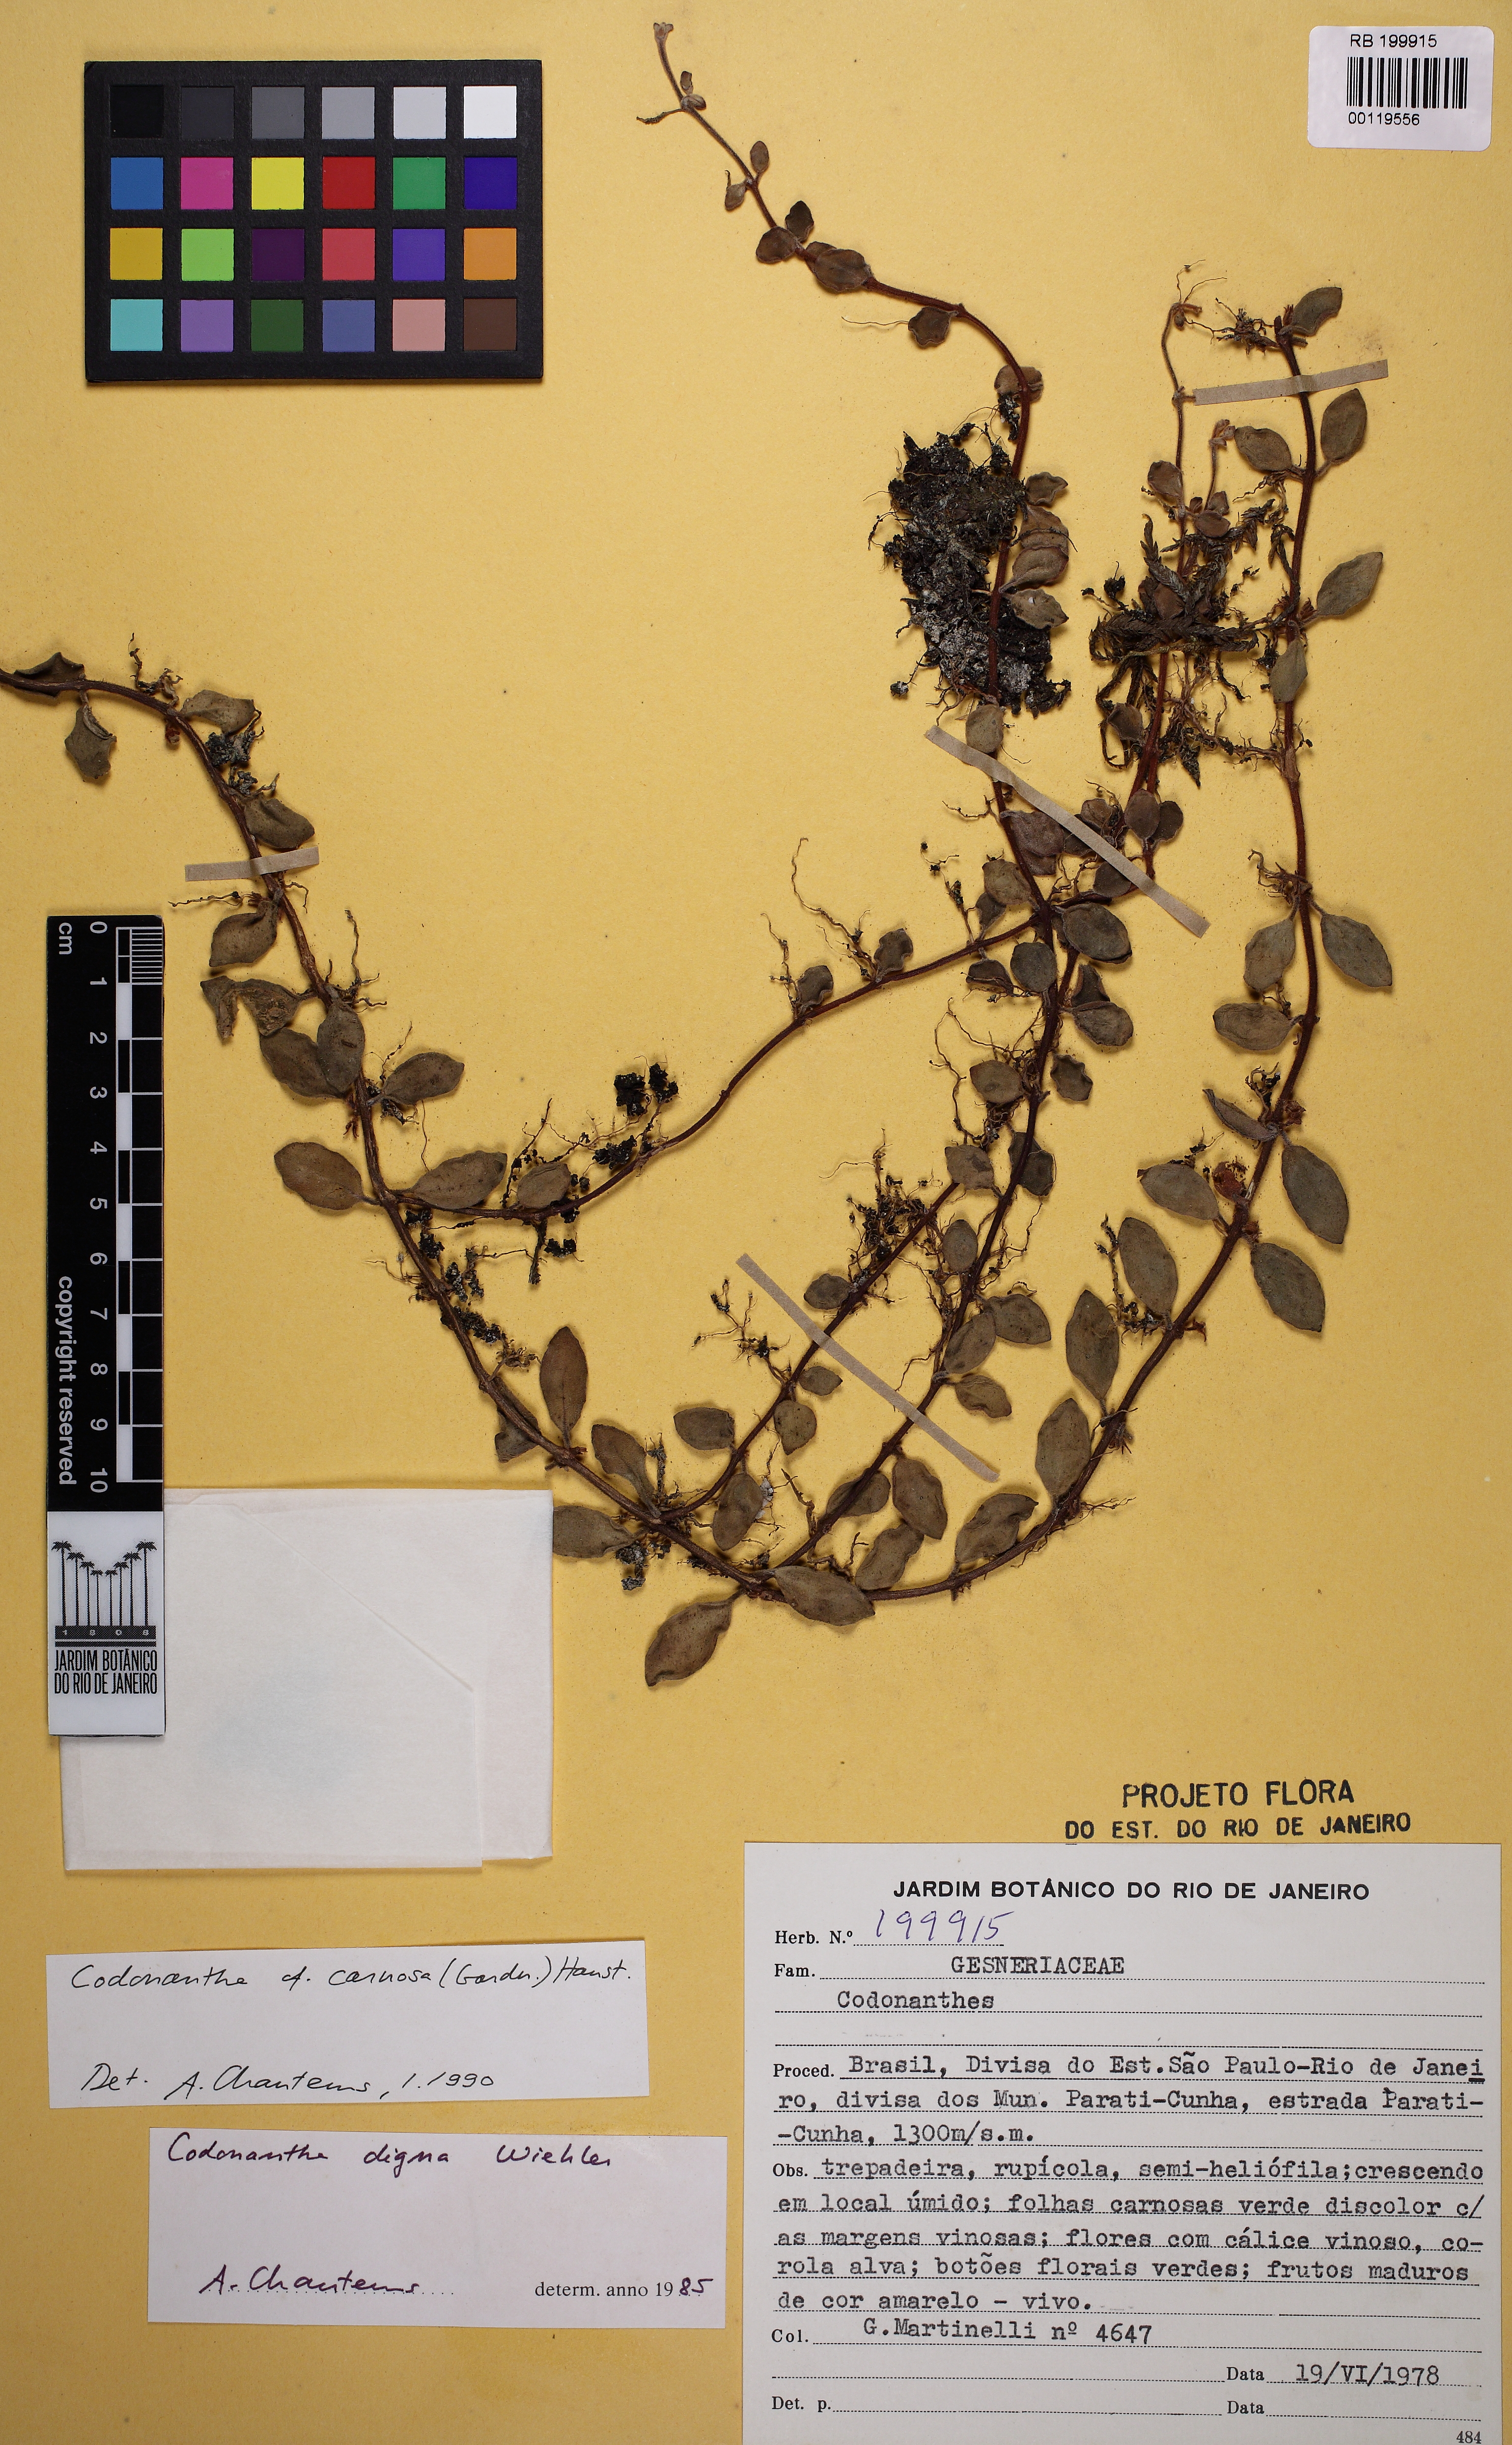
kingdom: Plantae
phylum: Tracheophyta
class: Magnoliopsida
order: Lamiales
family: Gesneriaceae
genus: Codonanthe
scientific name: Codonanthe carnosa
